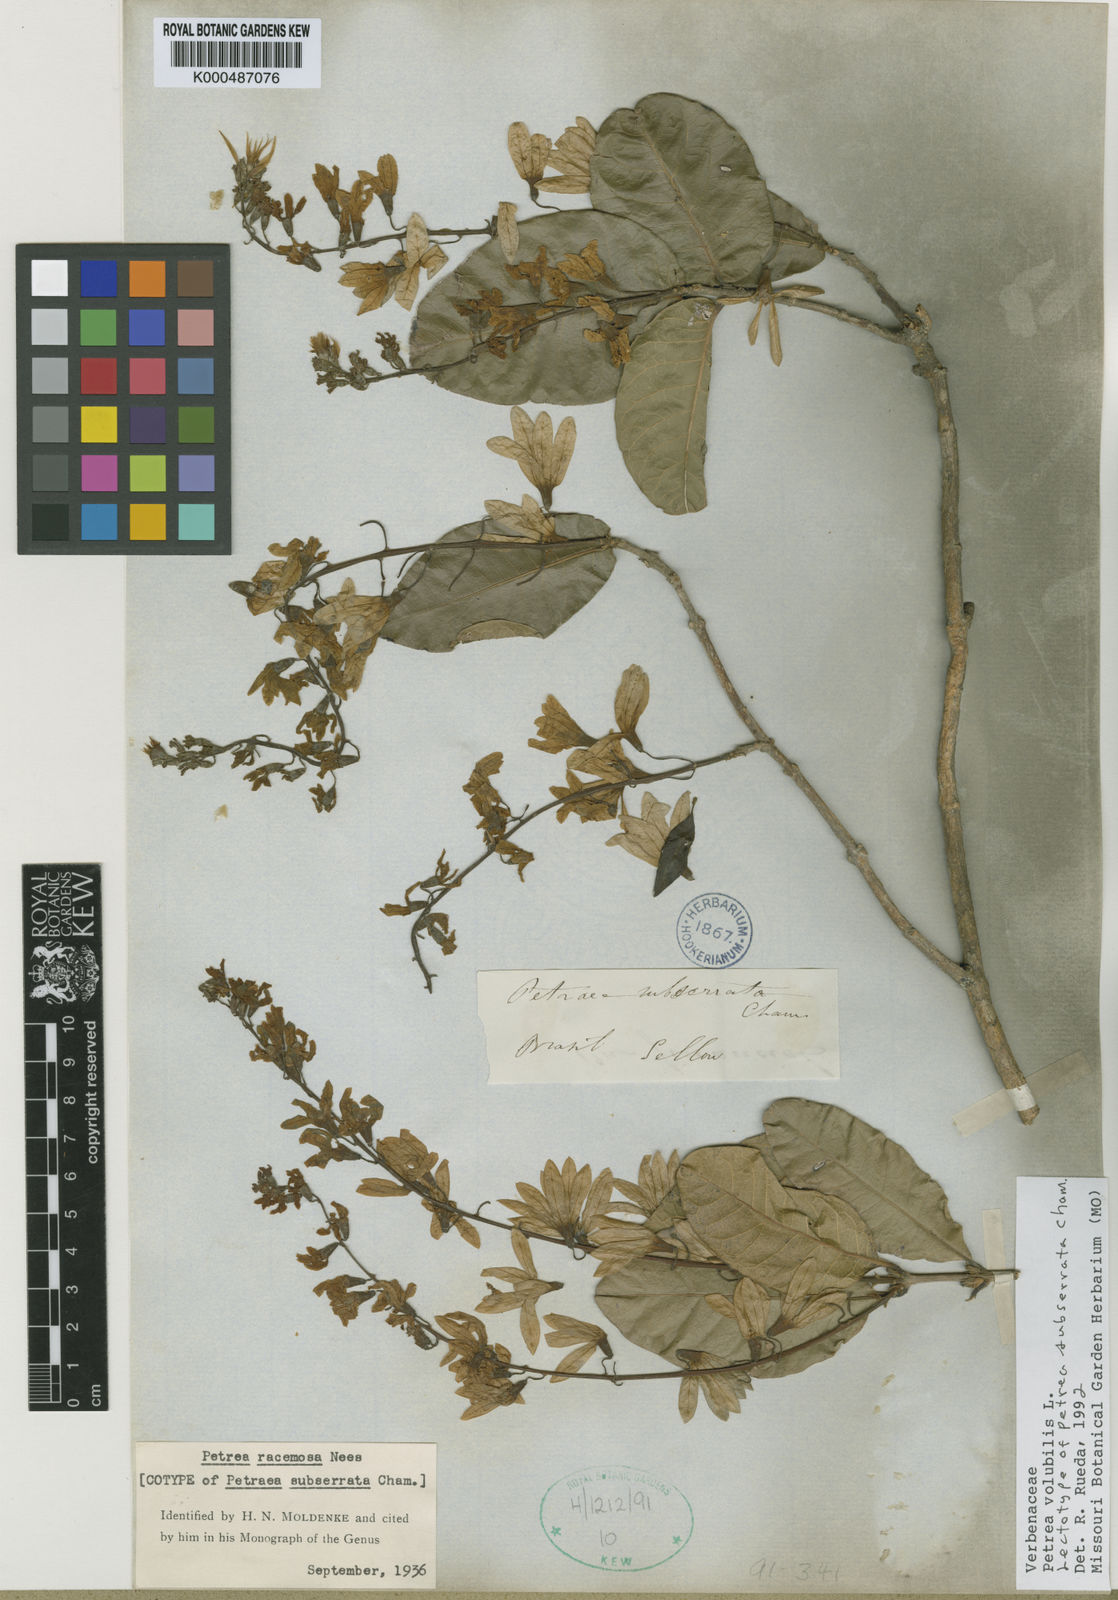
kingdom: Plantae
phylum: Tracheophyta
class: Magnoliopsida
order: Lamiales
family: Verbenaceae
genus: Petrea
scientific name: Petrea volubilis
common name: Queen's-wreath
